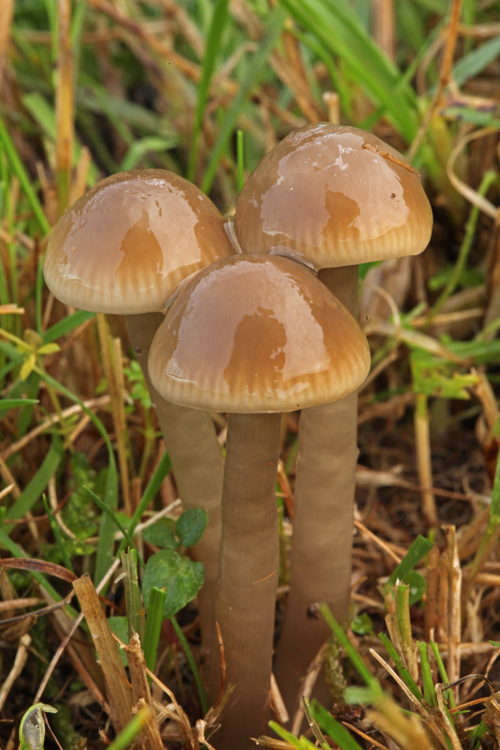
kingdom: Fungi
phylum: Basidiomycota
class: Agaricomycetes
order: Agaricales
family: Hygrophoraceae
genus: Gliophorus
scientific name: Gliophorus irrigatus
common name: slimet vokshat
